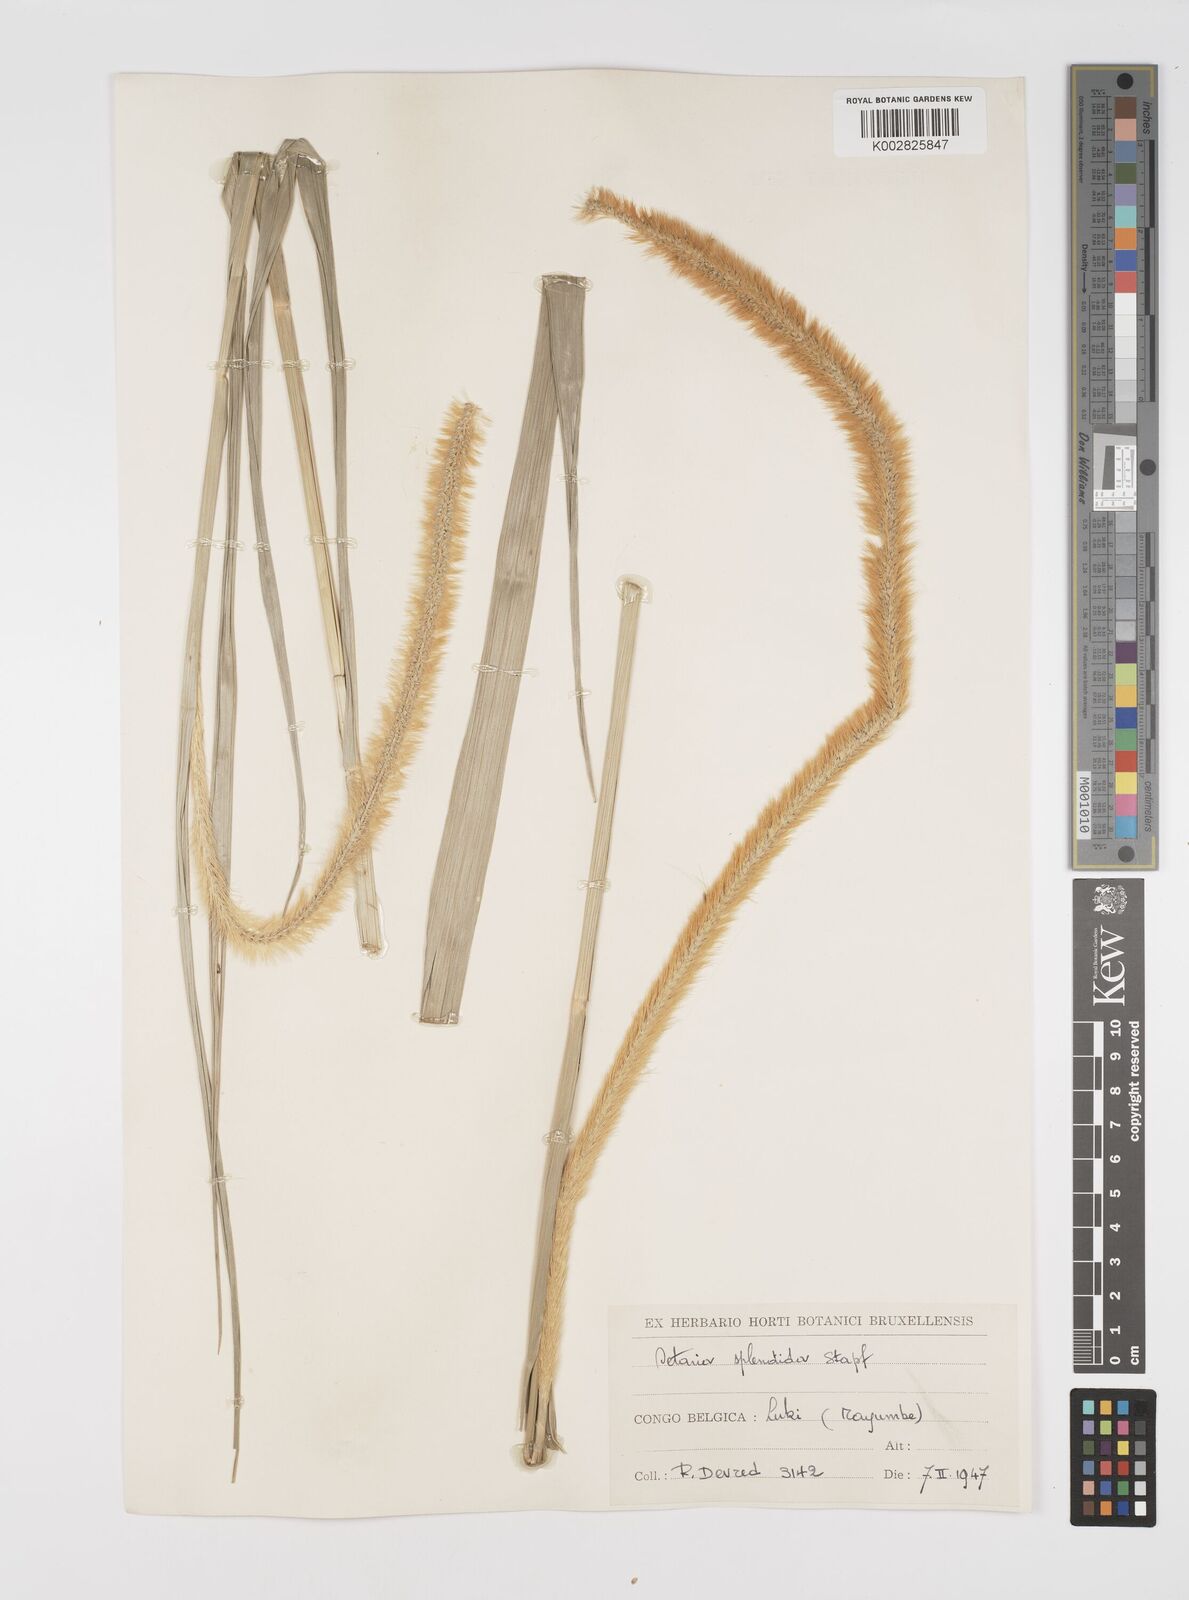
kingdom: Plantae
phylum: Tracheophyta
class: Liliopsida
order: Poales
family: Poaceae
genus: Setaria
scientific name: Setaria sphacelata
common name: African bristlegrass
